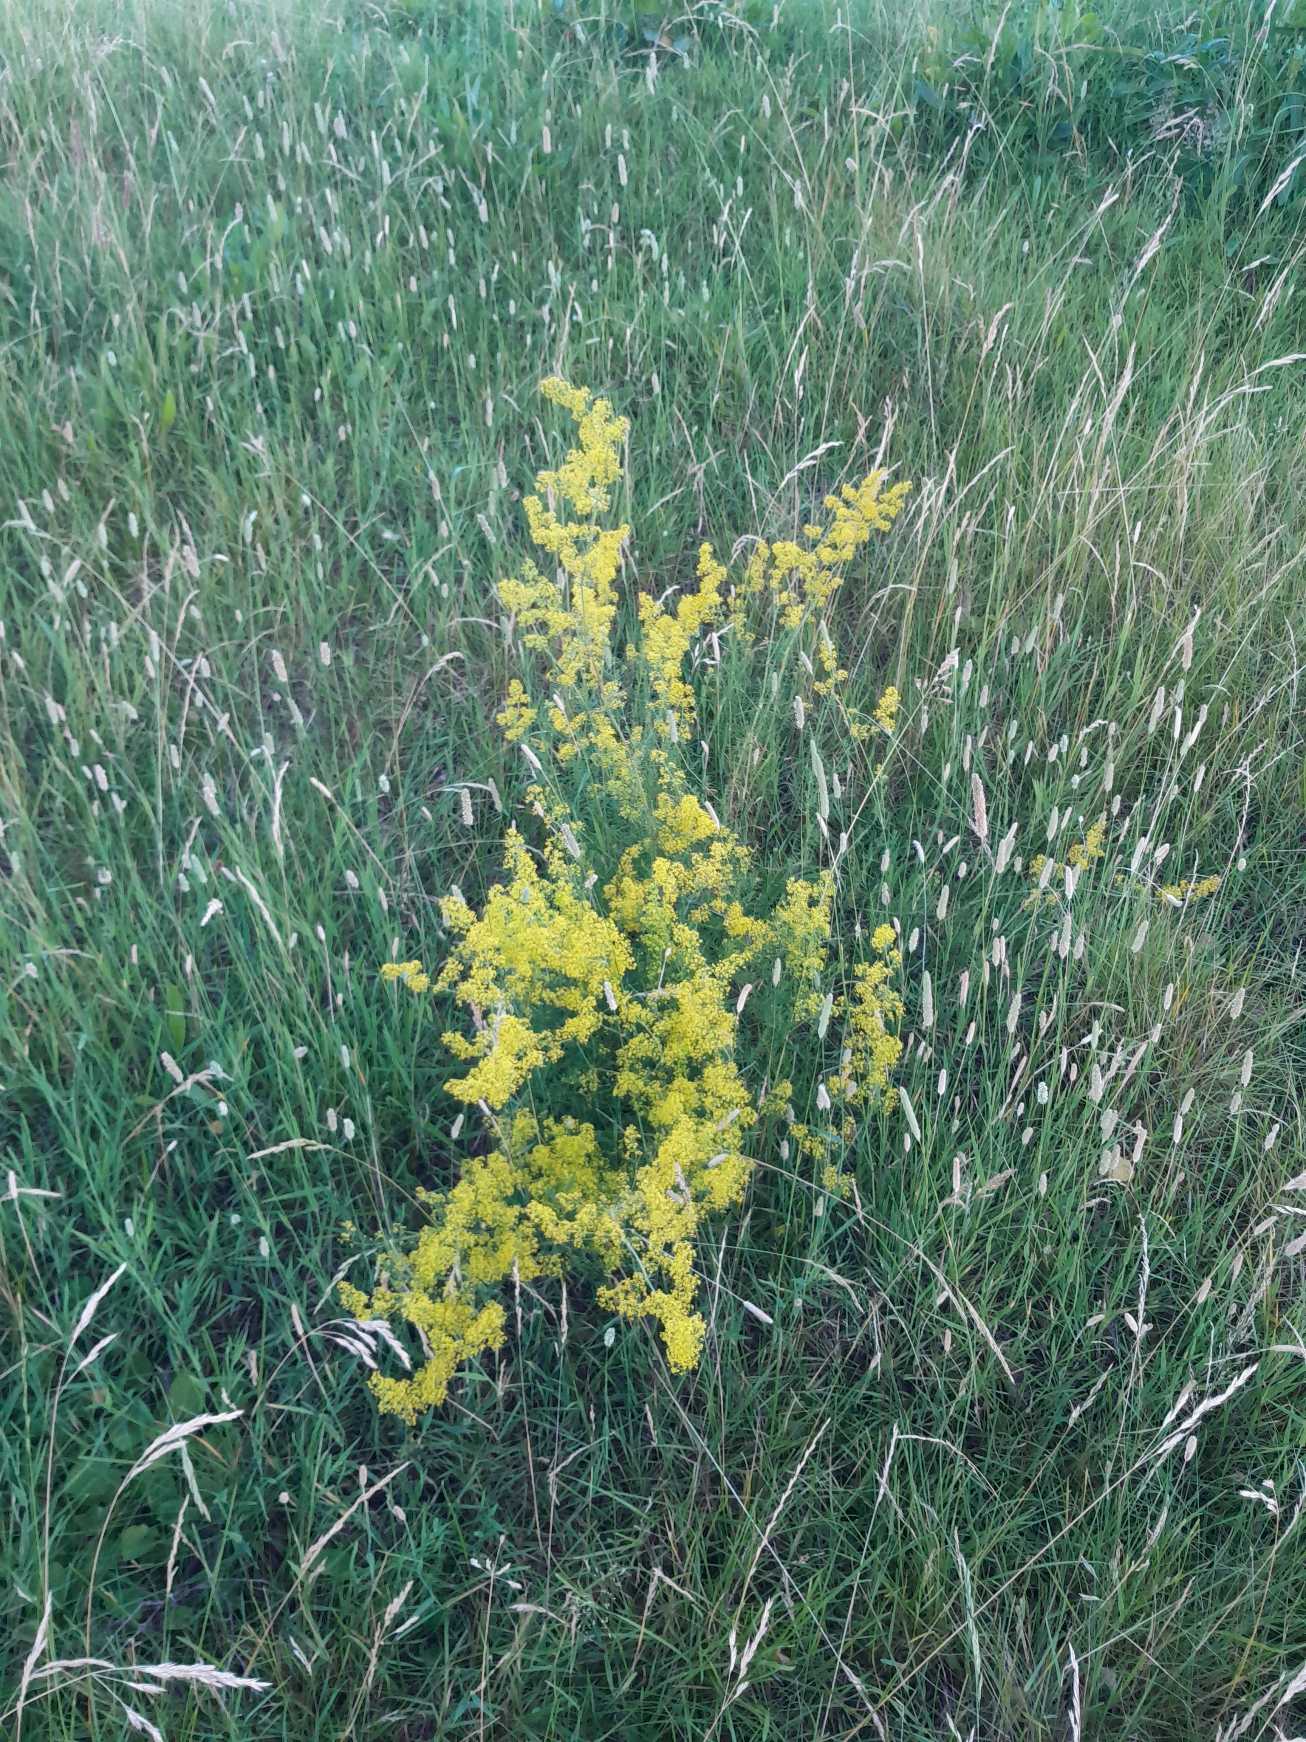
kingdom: Plantae
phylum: Tracheophyta
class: Magnoliopsida
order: Gentianales
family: Rubiaceae
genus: Galium
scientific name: Galium verum
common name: Gul snerre
